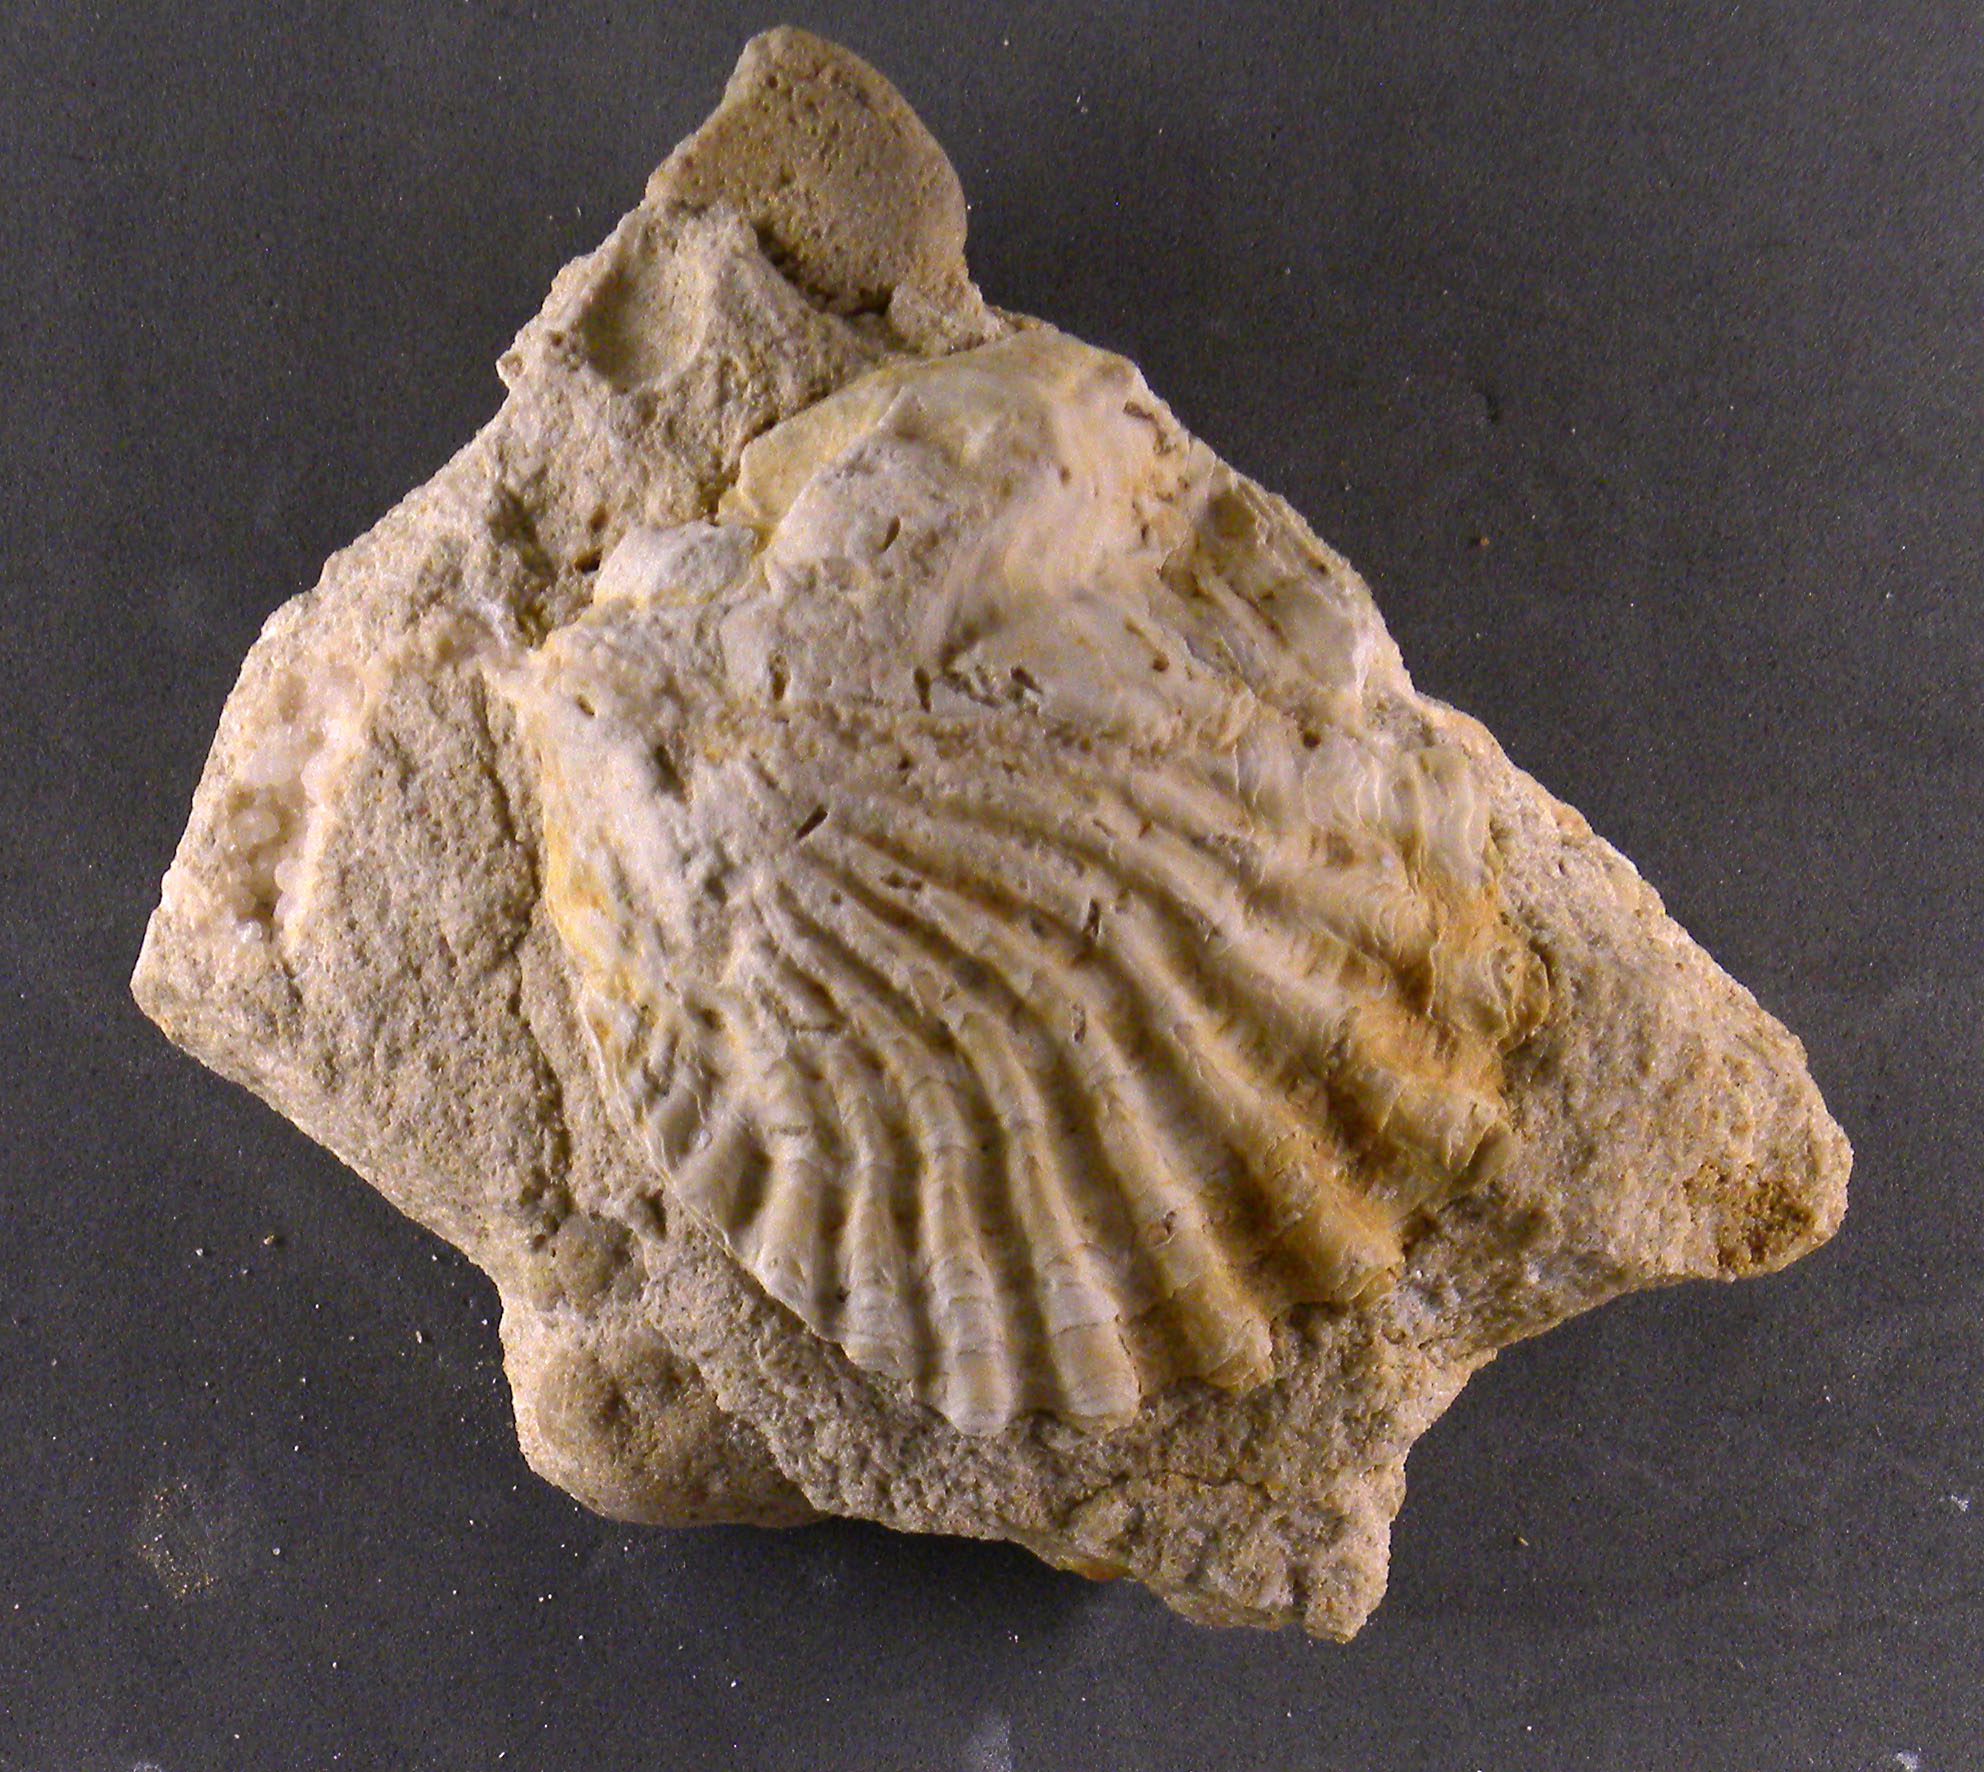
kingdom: Animalia
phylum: Mollusca
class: Bivalvia
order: Ostreida
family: Ostreidae
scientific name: Ostreidae
